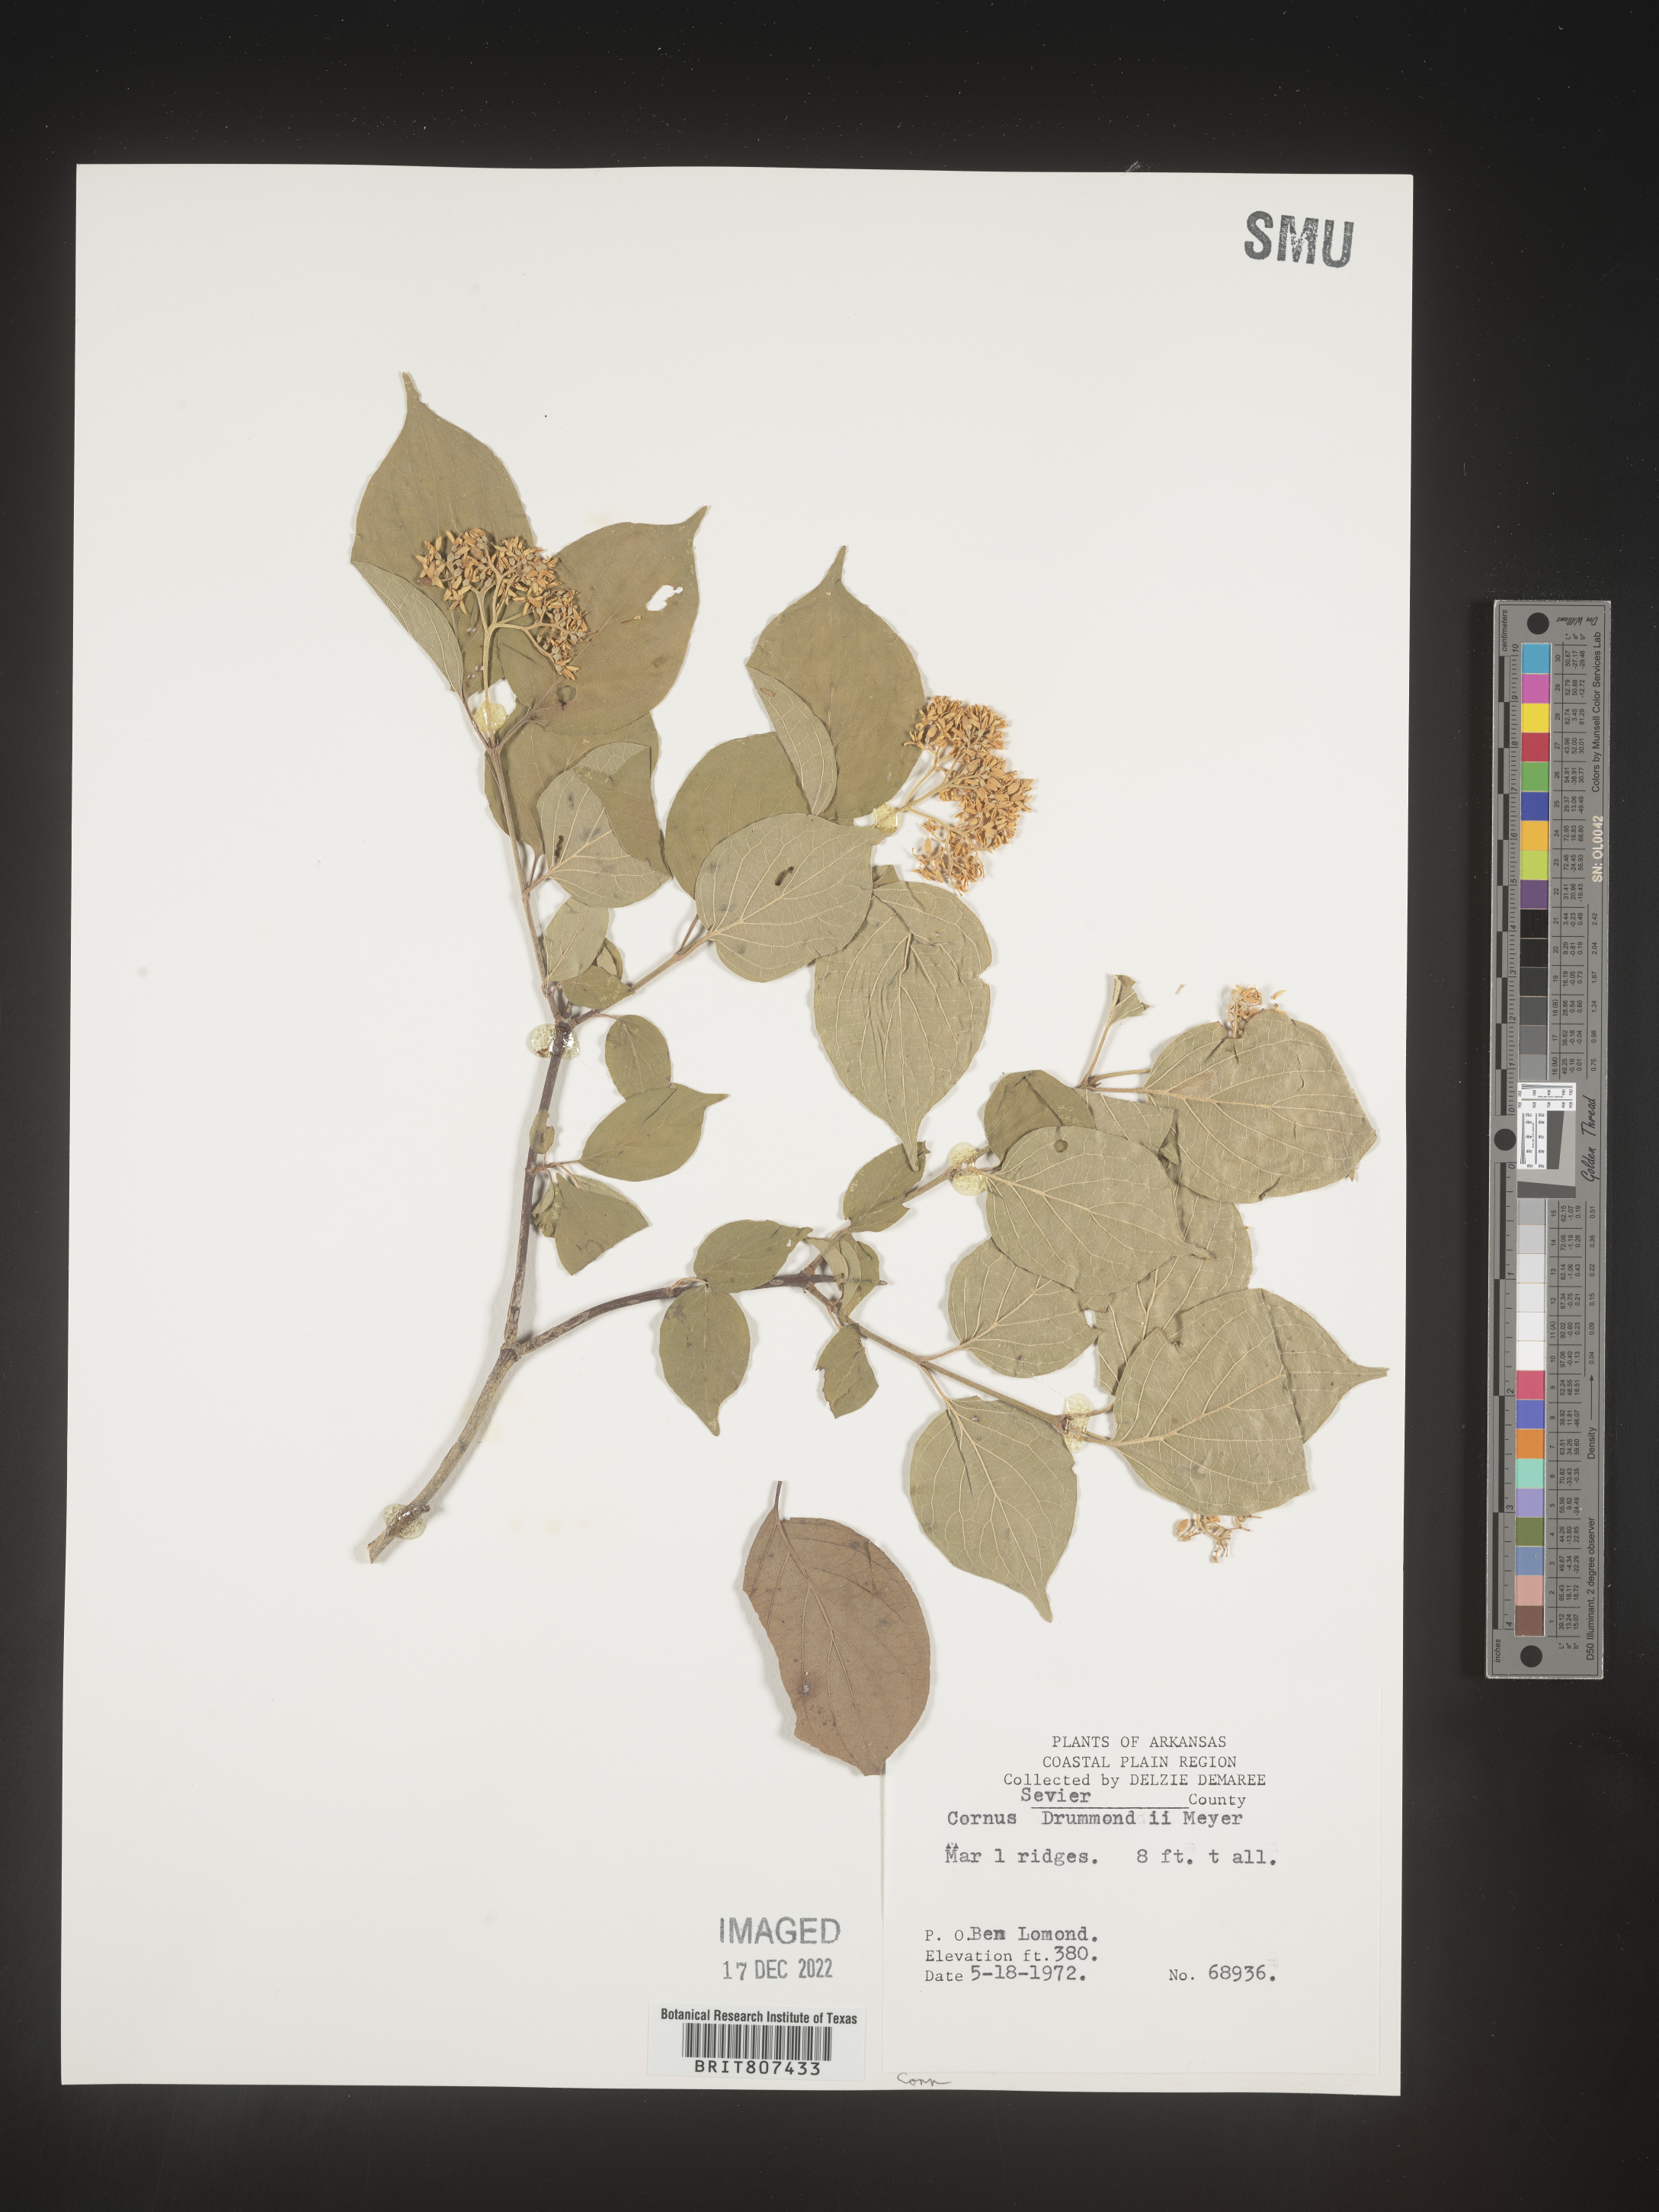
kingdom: Plantae
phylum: Tracheophyta
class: Magnoliopsida
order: Cornales
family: Cornaceae
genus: Cornus
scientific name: Cornus drummondii
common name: Rough-leaf dogwood
